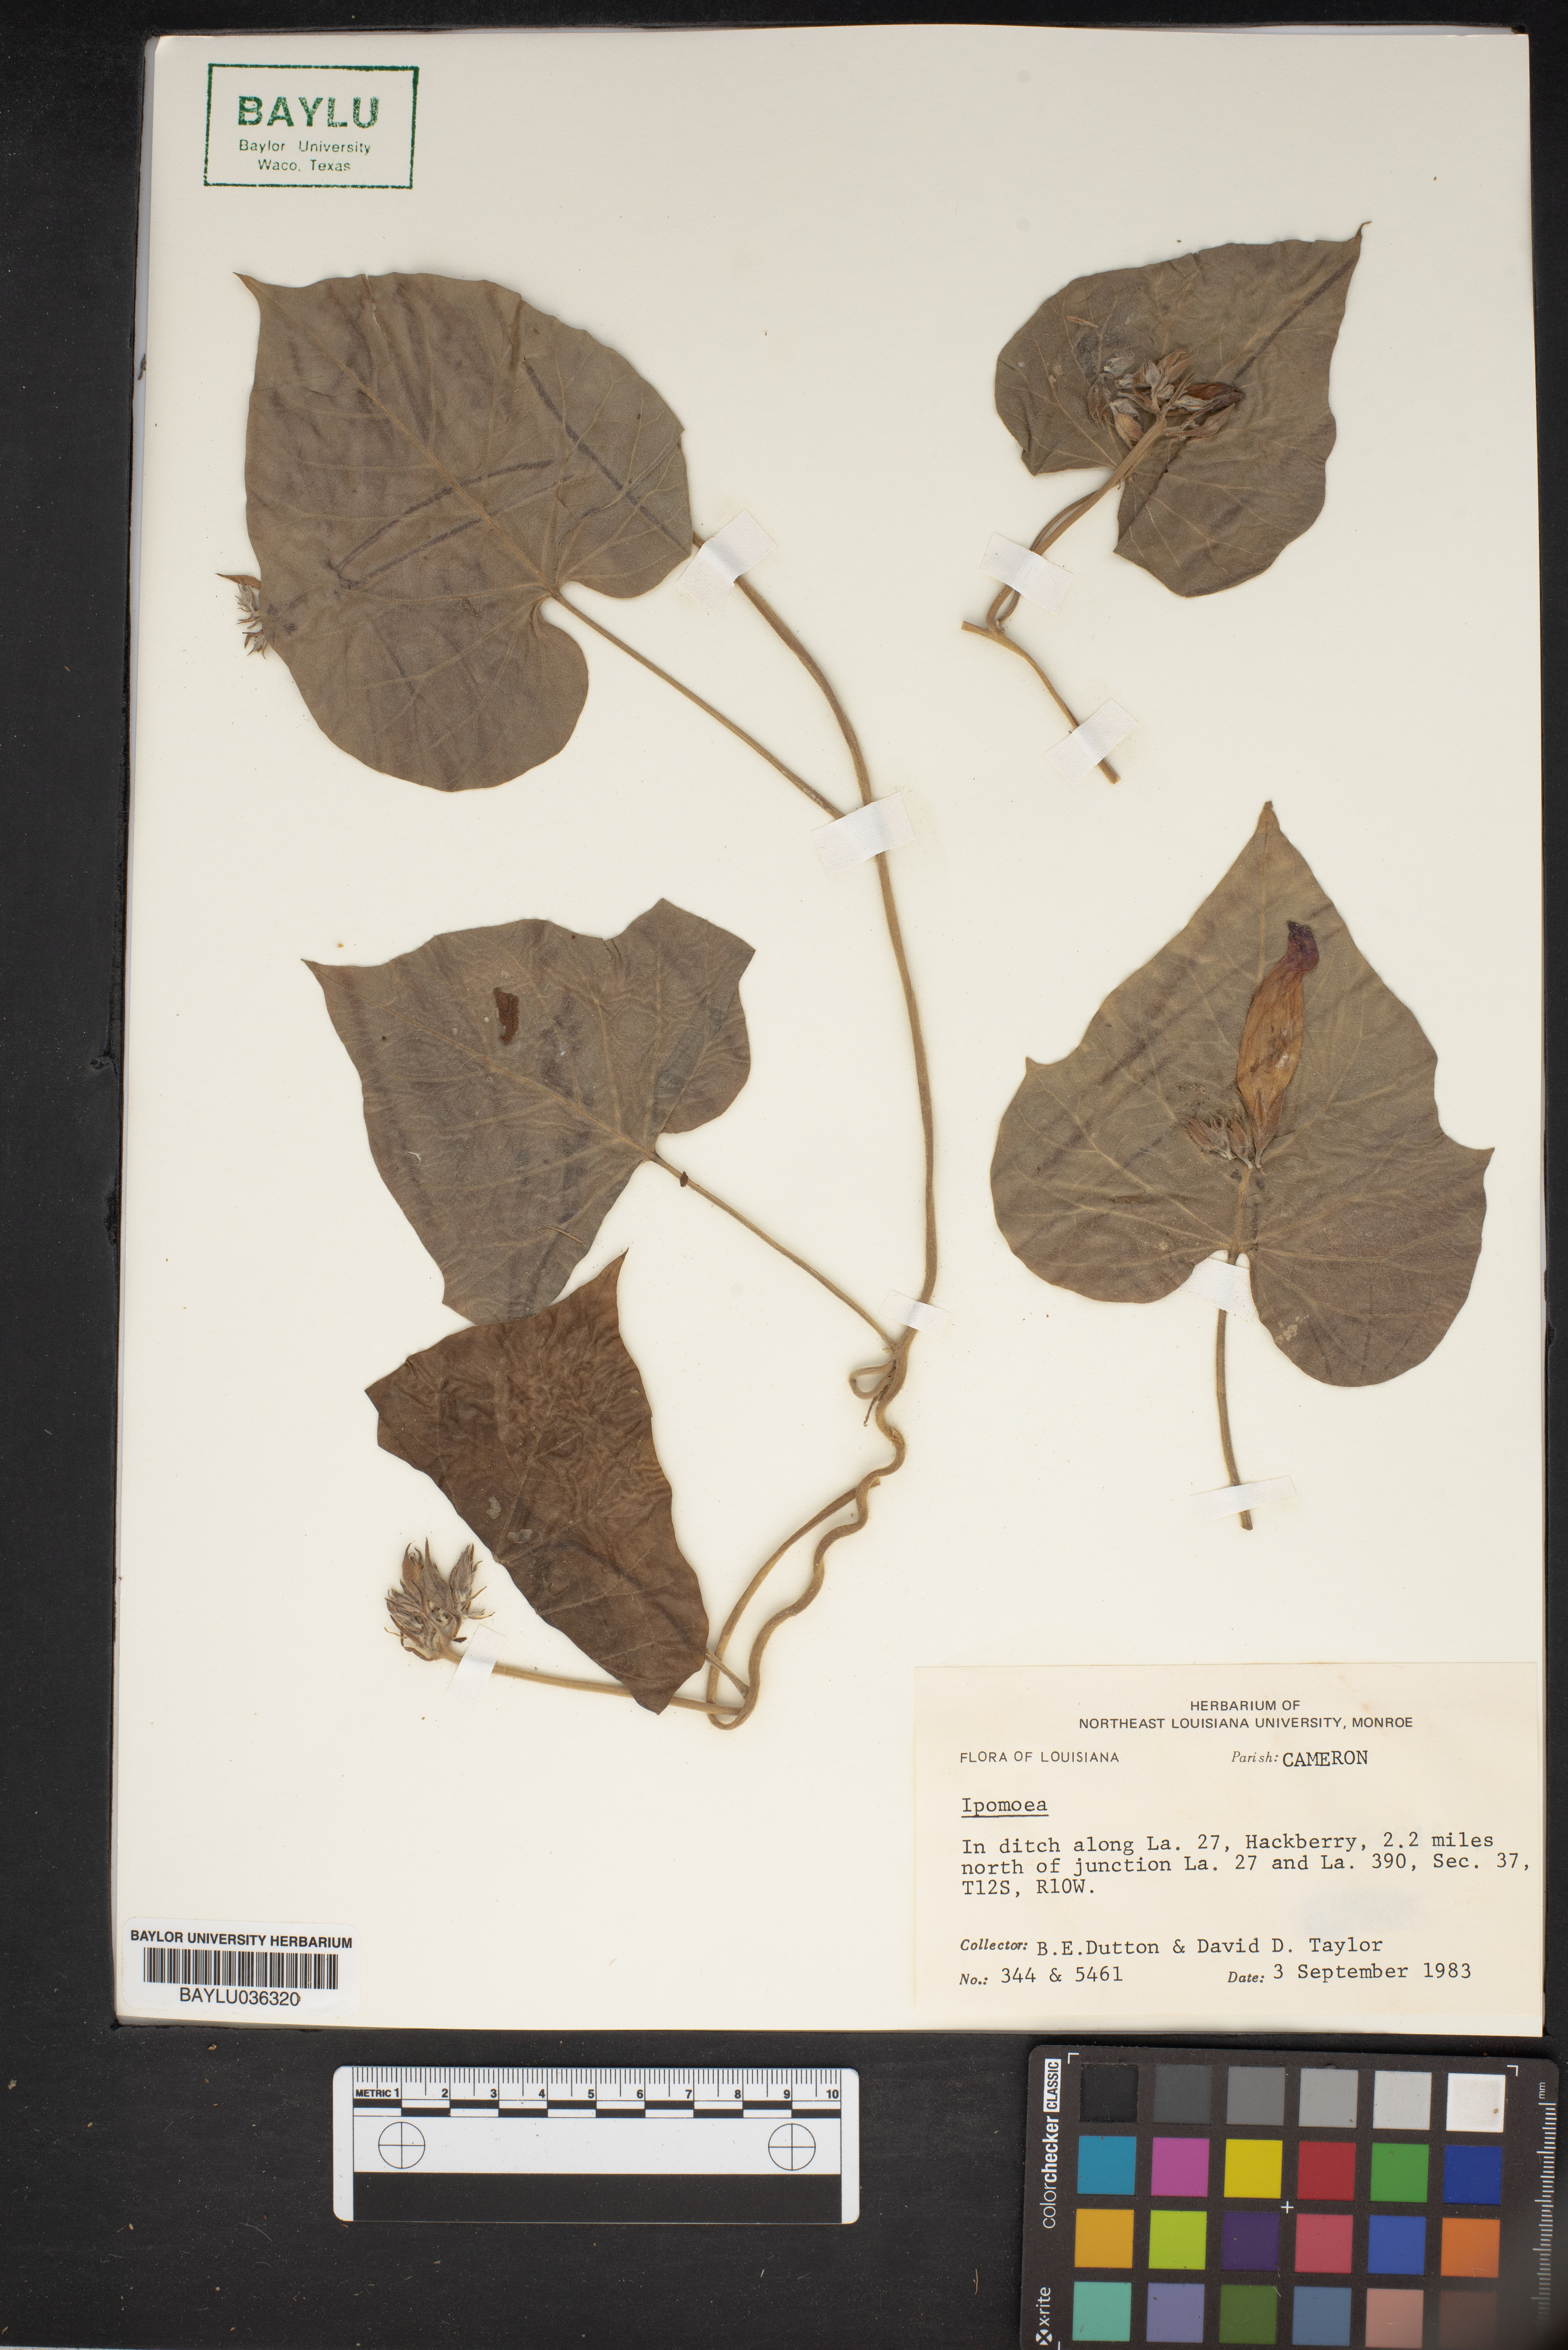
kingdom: Plantae
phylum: Tracheophyta
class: Magnoliopsida
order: Solanales
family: Convolvulaceae
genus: Ipomoea
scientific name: Ipomoea
